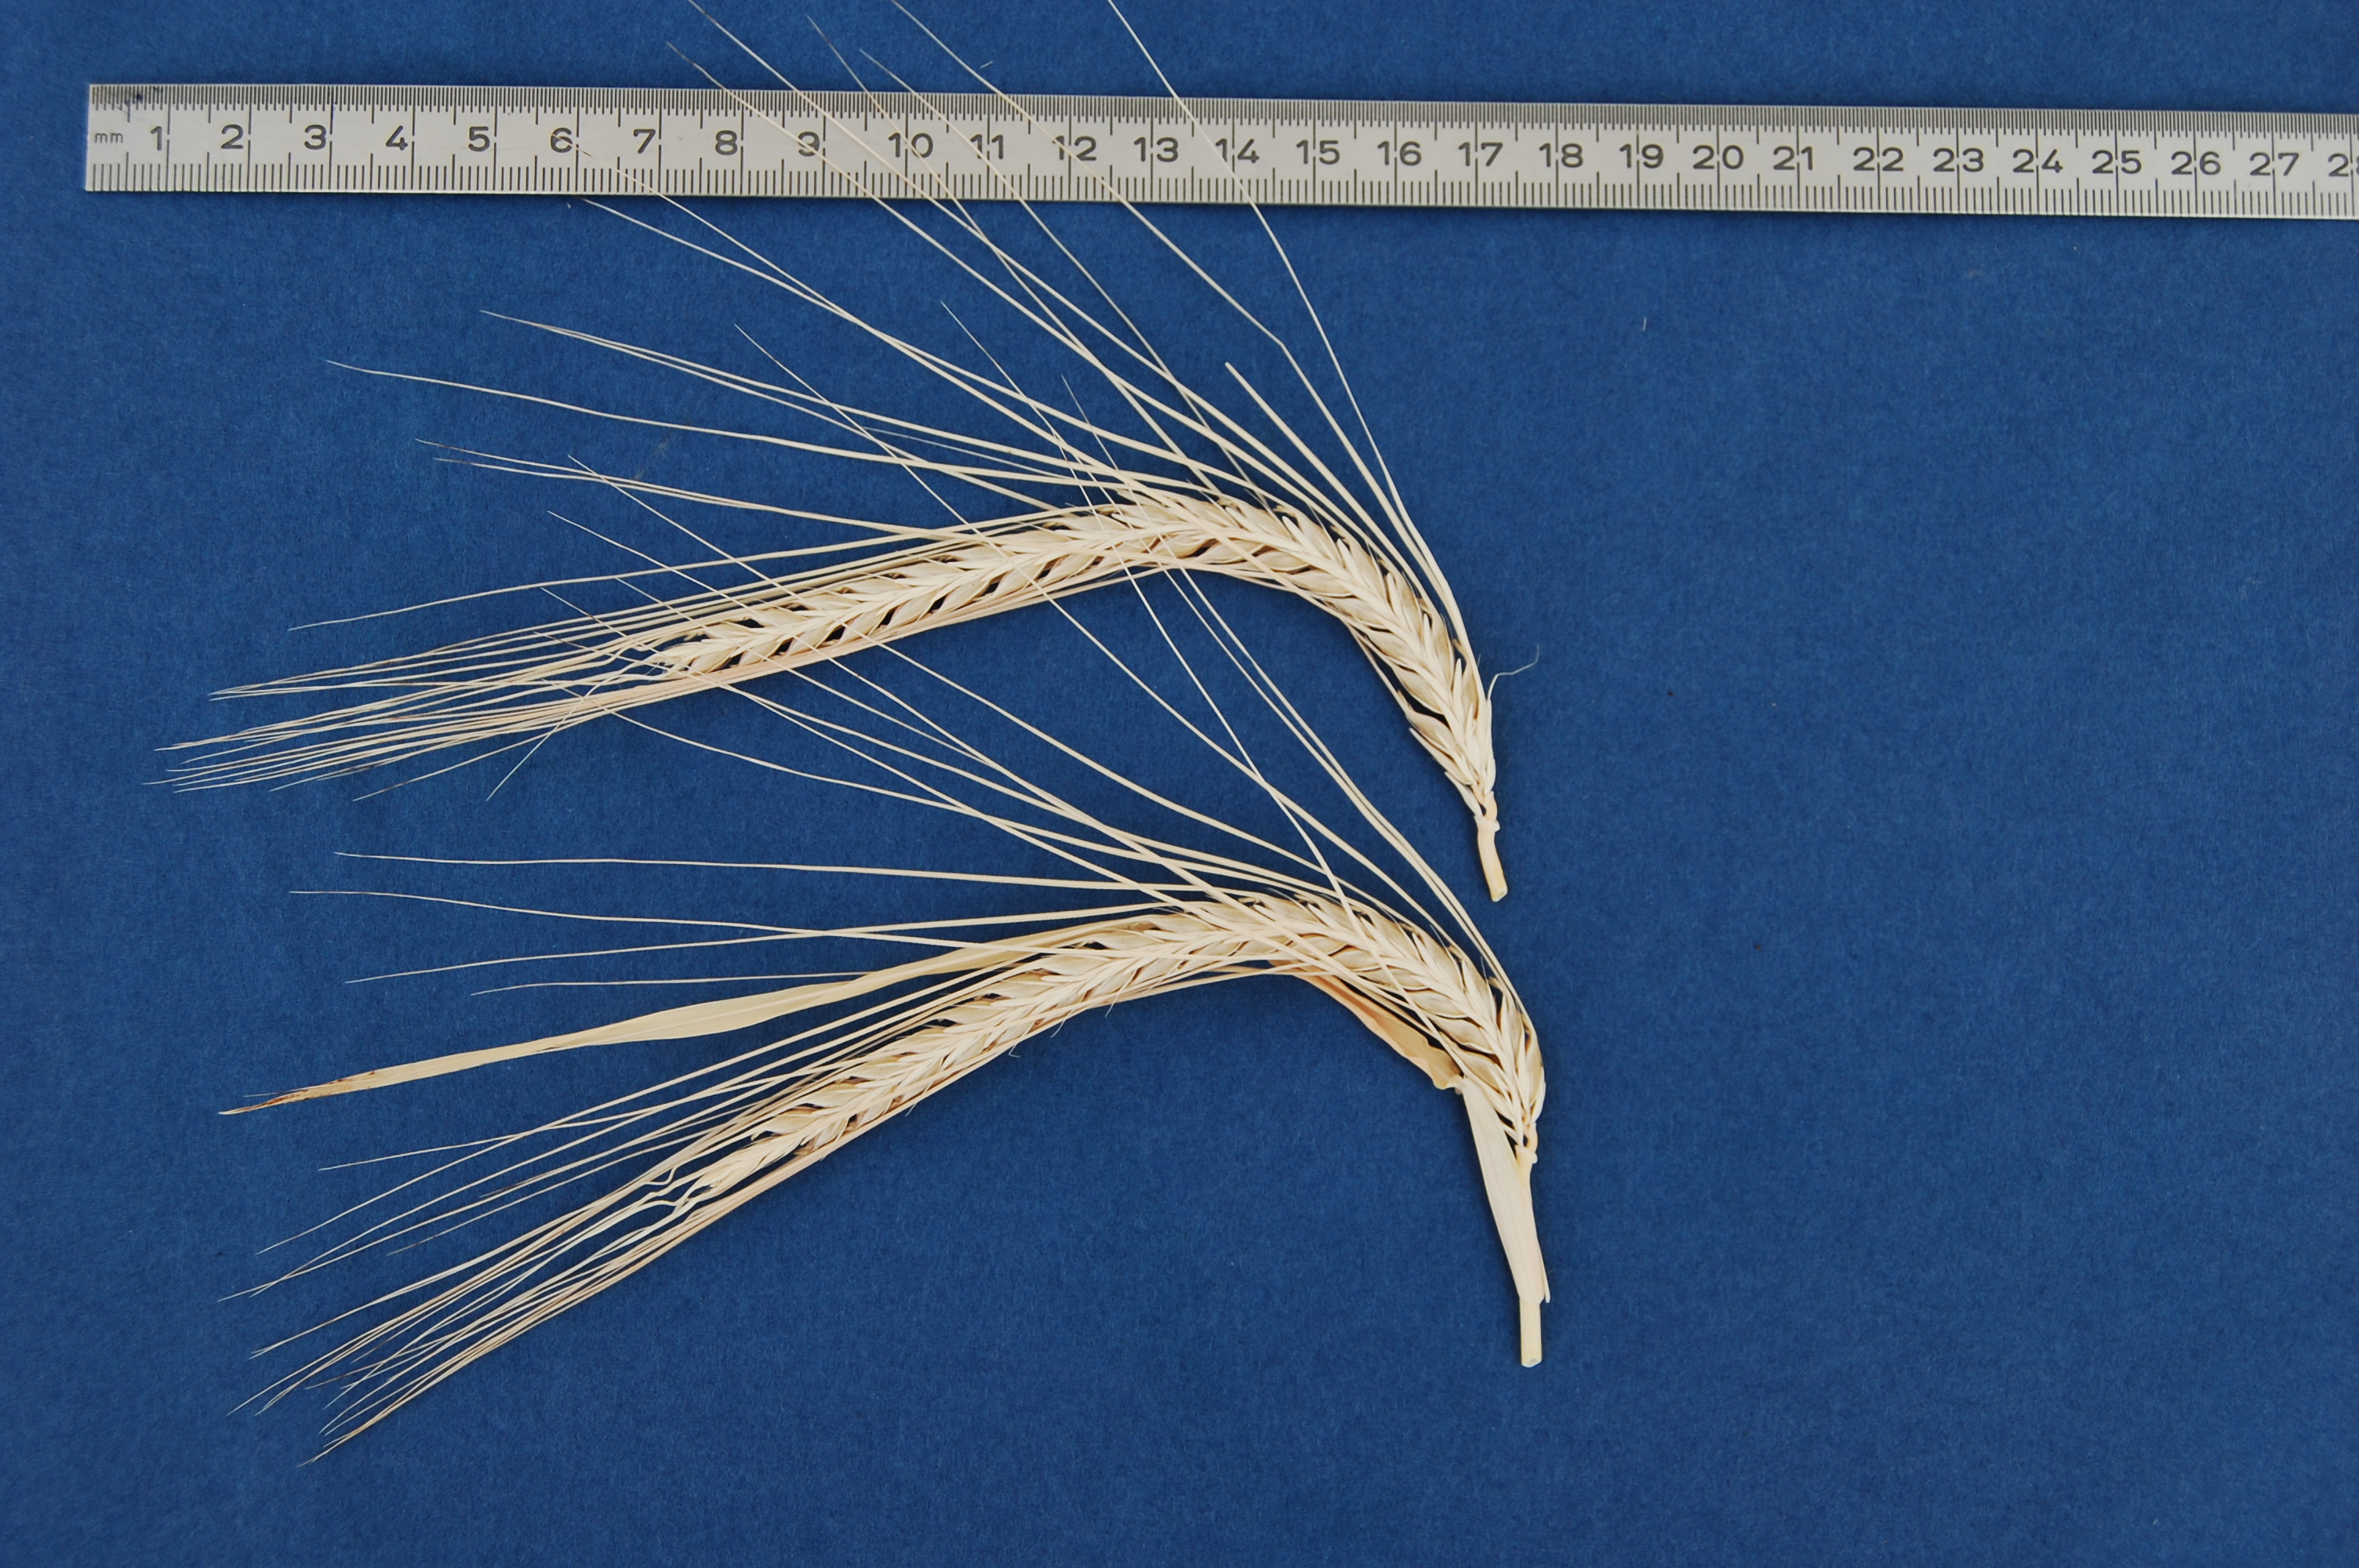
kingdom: Plantae
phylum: Tracheophyta
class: Liliopsida
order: Poales
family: Poaceae
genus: Hordeum
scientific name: Hordeum vulgare
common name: Common barley
